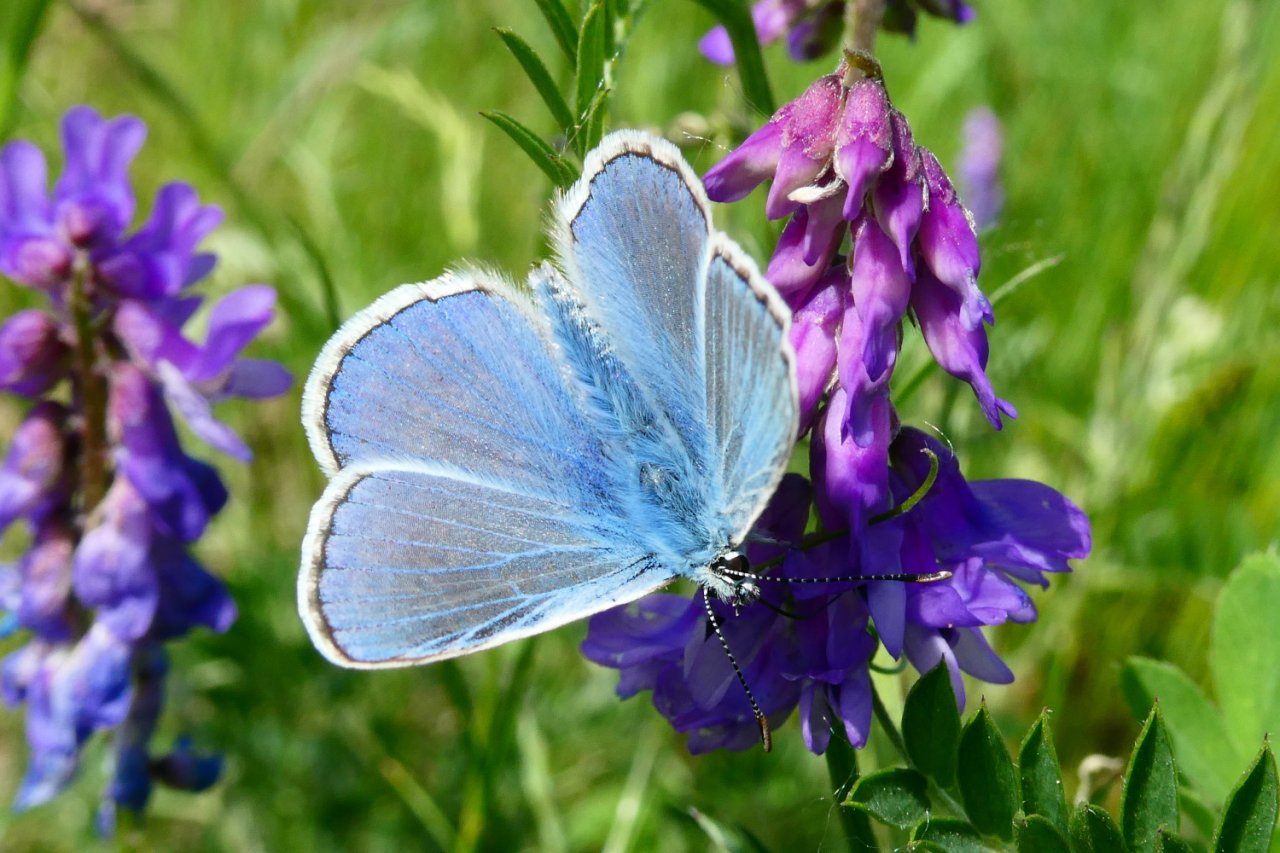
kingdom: Animalia
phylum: Arthropoda
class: Insecta
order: Lepidoptera
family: Lycaenidae
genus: Polyommatus
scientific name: Polyommatus icarus
